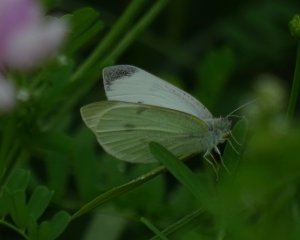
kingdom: Animalia
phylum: Arthropoda
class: Insecta
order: Lepidoptera
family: Pieridae
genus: Pieris
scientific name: Pieris rapae
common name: Cabbage White
